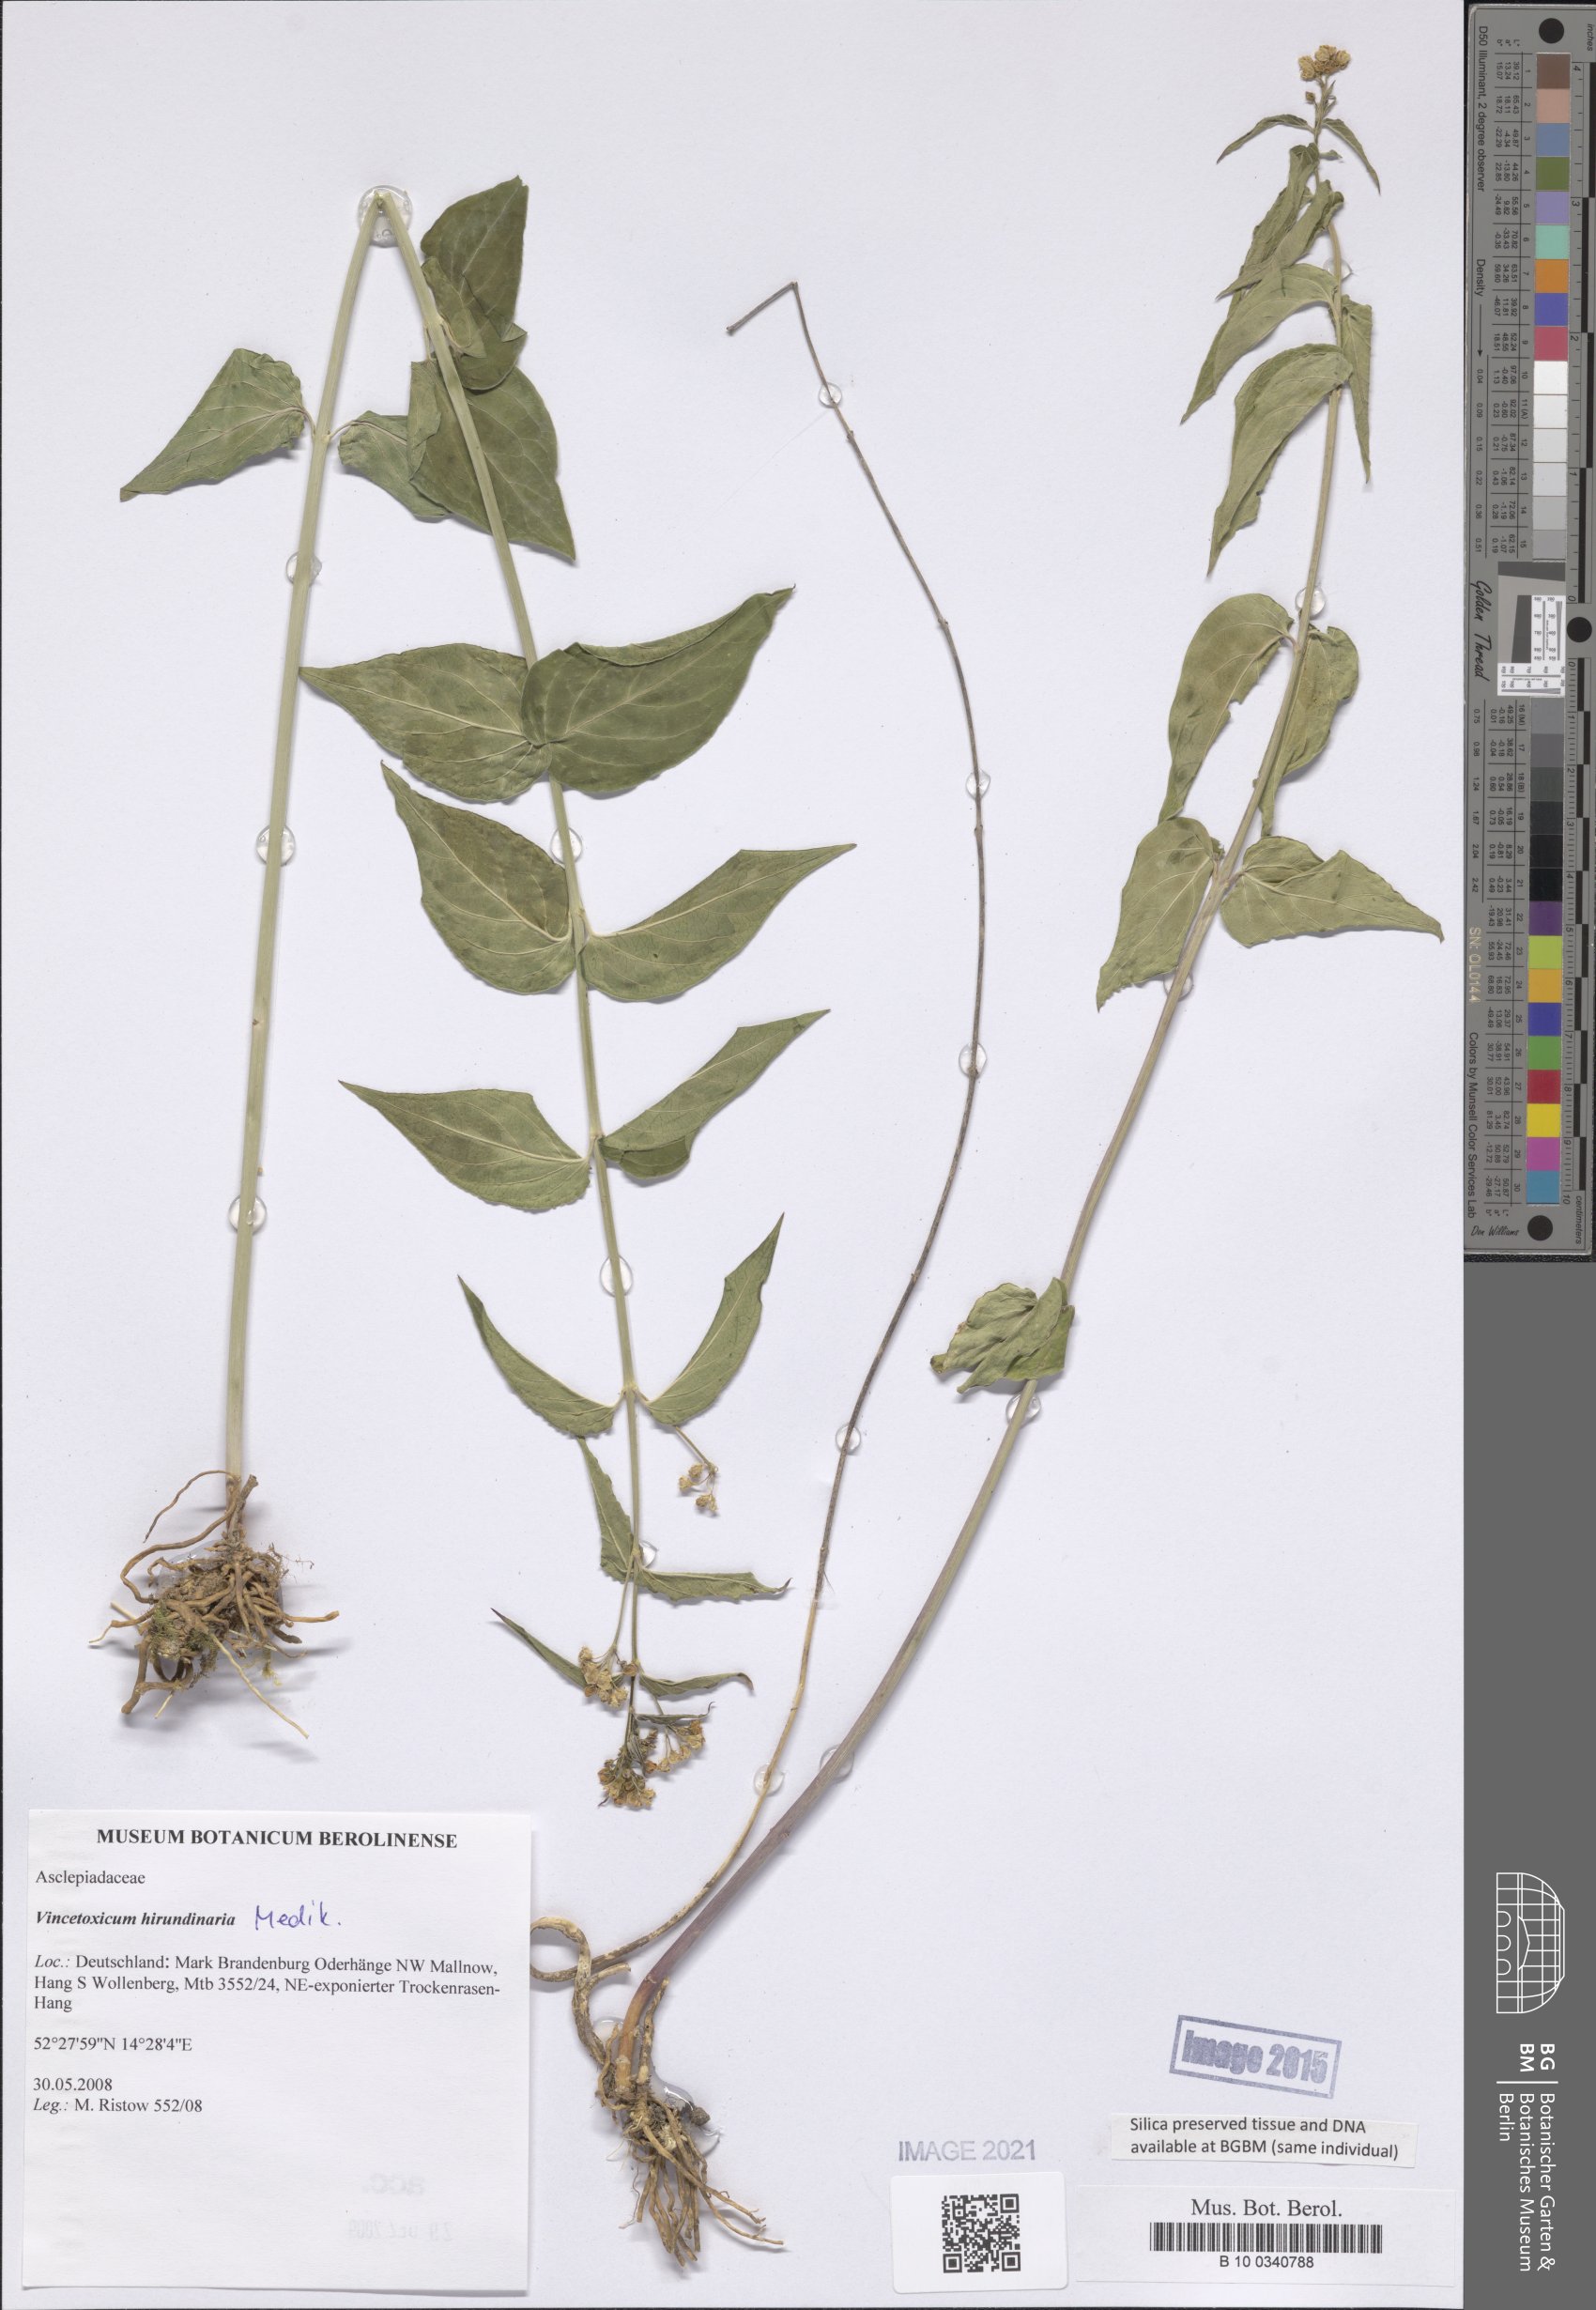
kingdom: Plantae
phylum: Tracheophyta
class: Magnoliopsida
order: Gentianales
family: Apocynaceae
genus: Vincetoxicum
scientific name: Vincetoxicum hirundinaria
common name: White swallowwort
